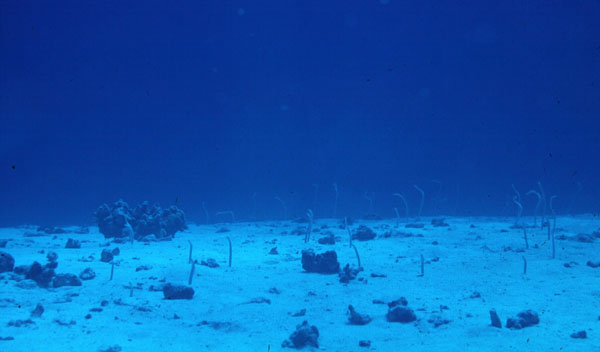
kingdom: Animalia
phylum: Chordata
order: Anguilliformes
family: Congridae
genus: Gorgasia
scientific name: Gorgasia hawaiiensis
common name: Hawaiian garden eel
